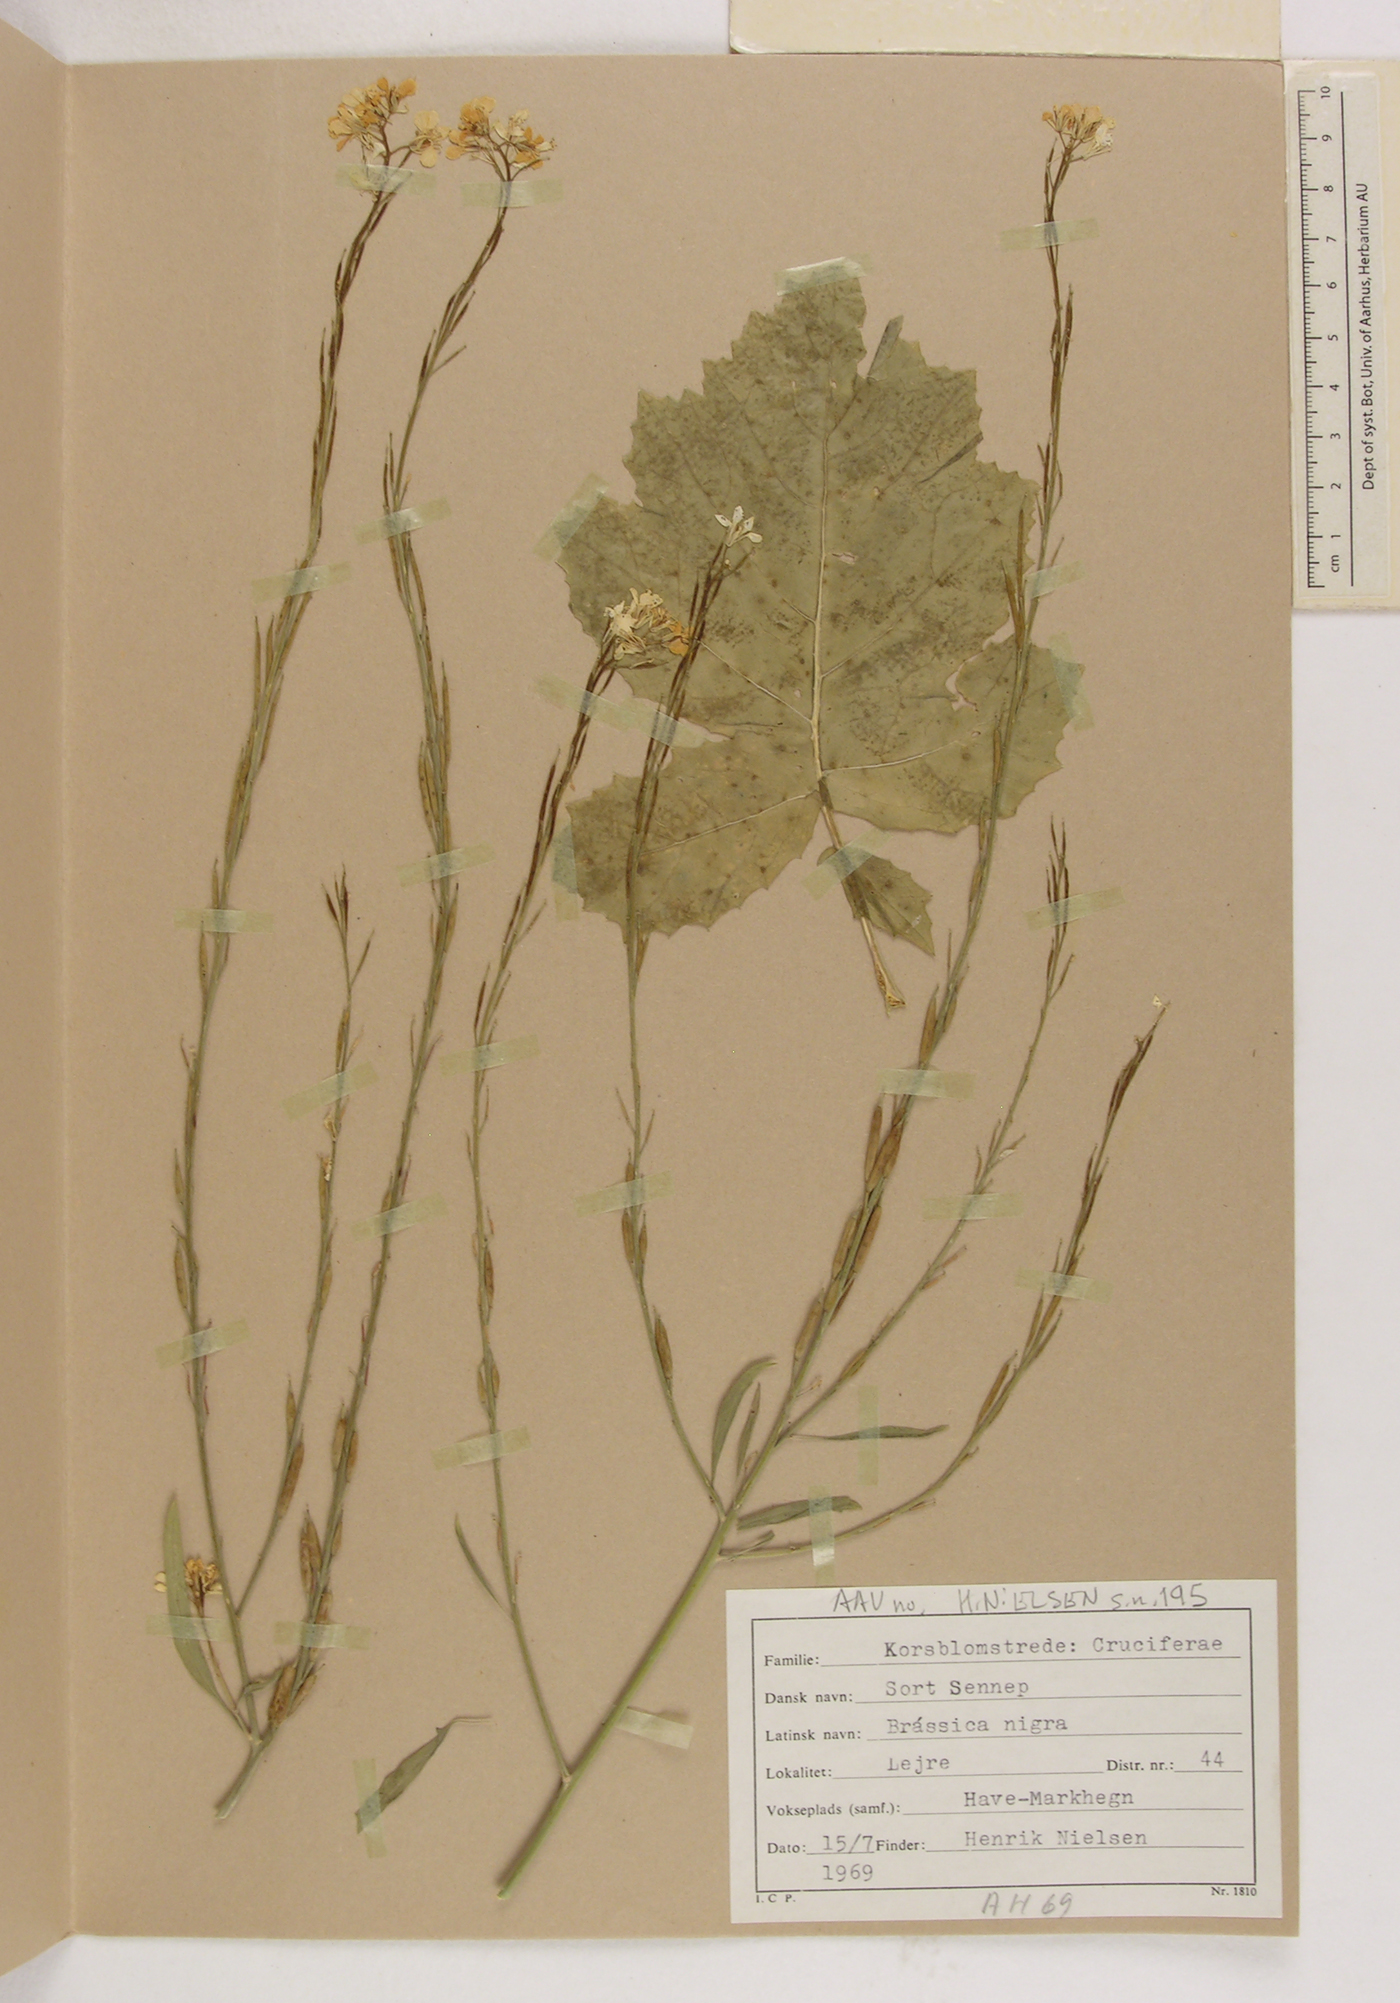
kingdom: Plantae
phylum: Tracheophyta
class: Magnoliopsida
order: Brassicales
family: Brassicaceae
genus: Brassica
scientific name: Brassica nigra
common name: Black mustard
